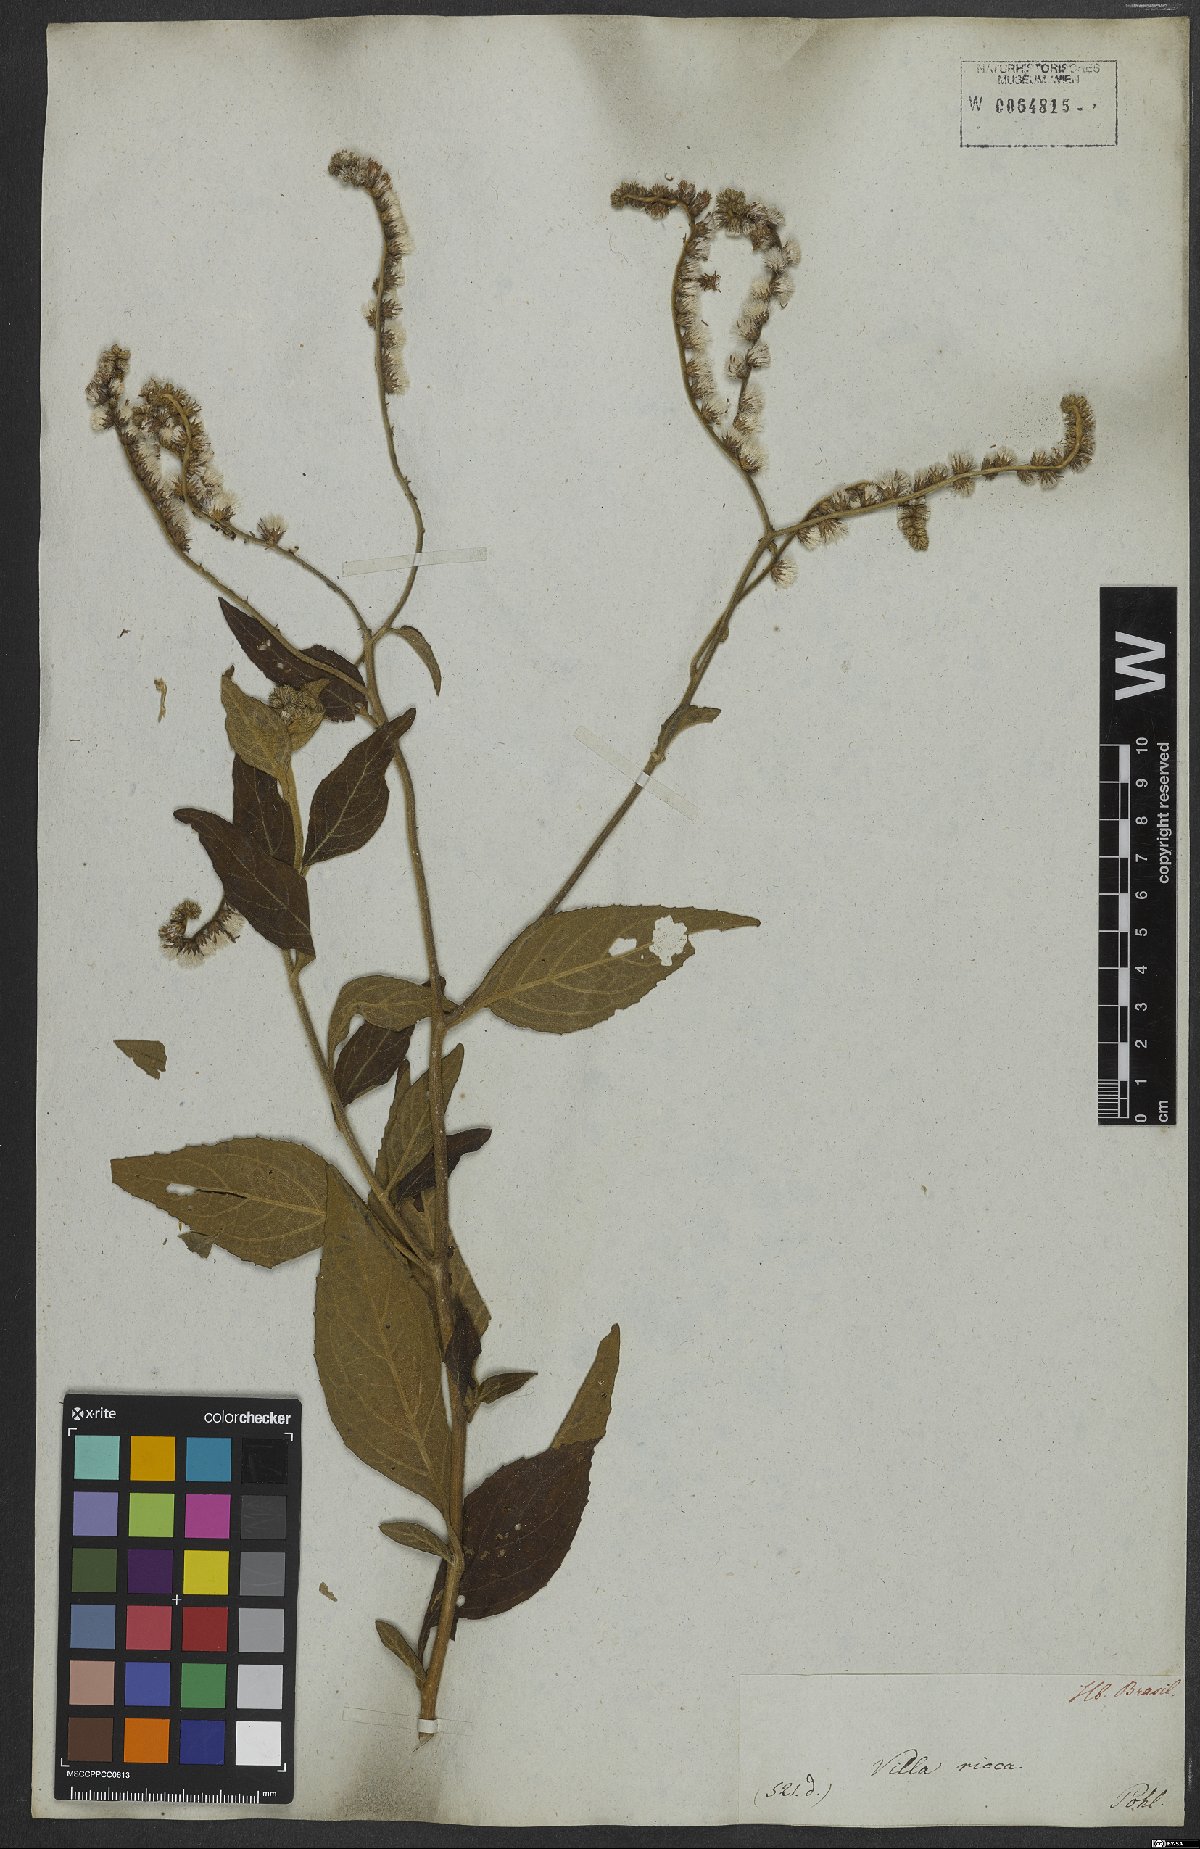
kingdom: Plantae
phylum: Tracheophyta
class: Magnoliopsida
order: Asterales
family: Asteraceae
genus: Cyrtocymura
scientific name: Cyrtocymura scorpioides
